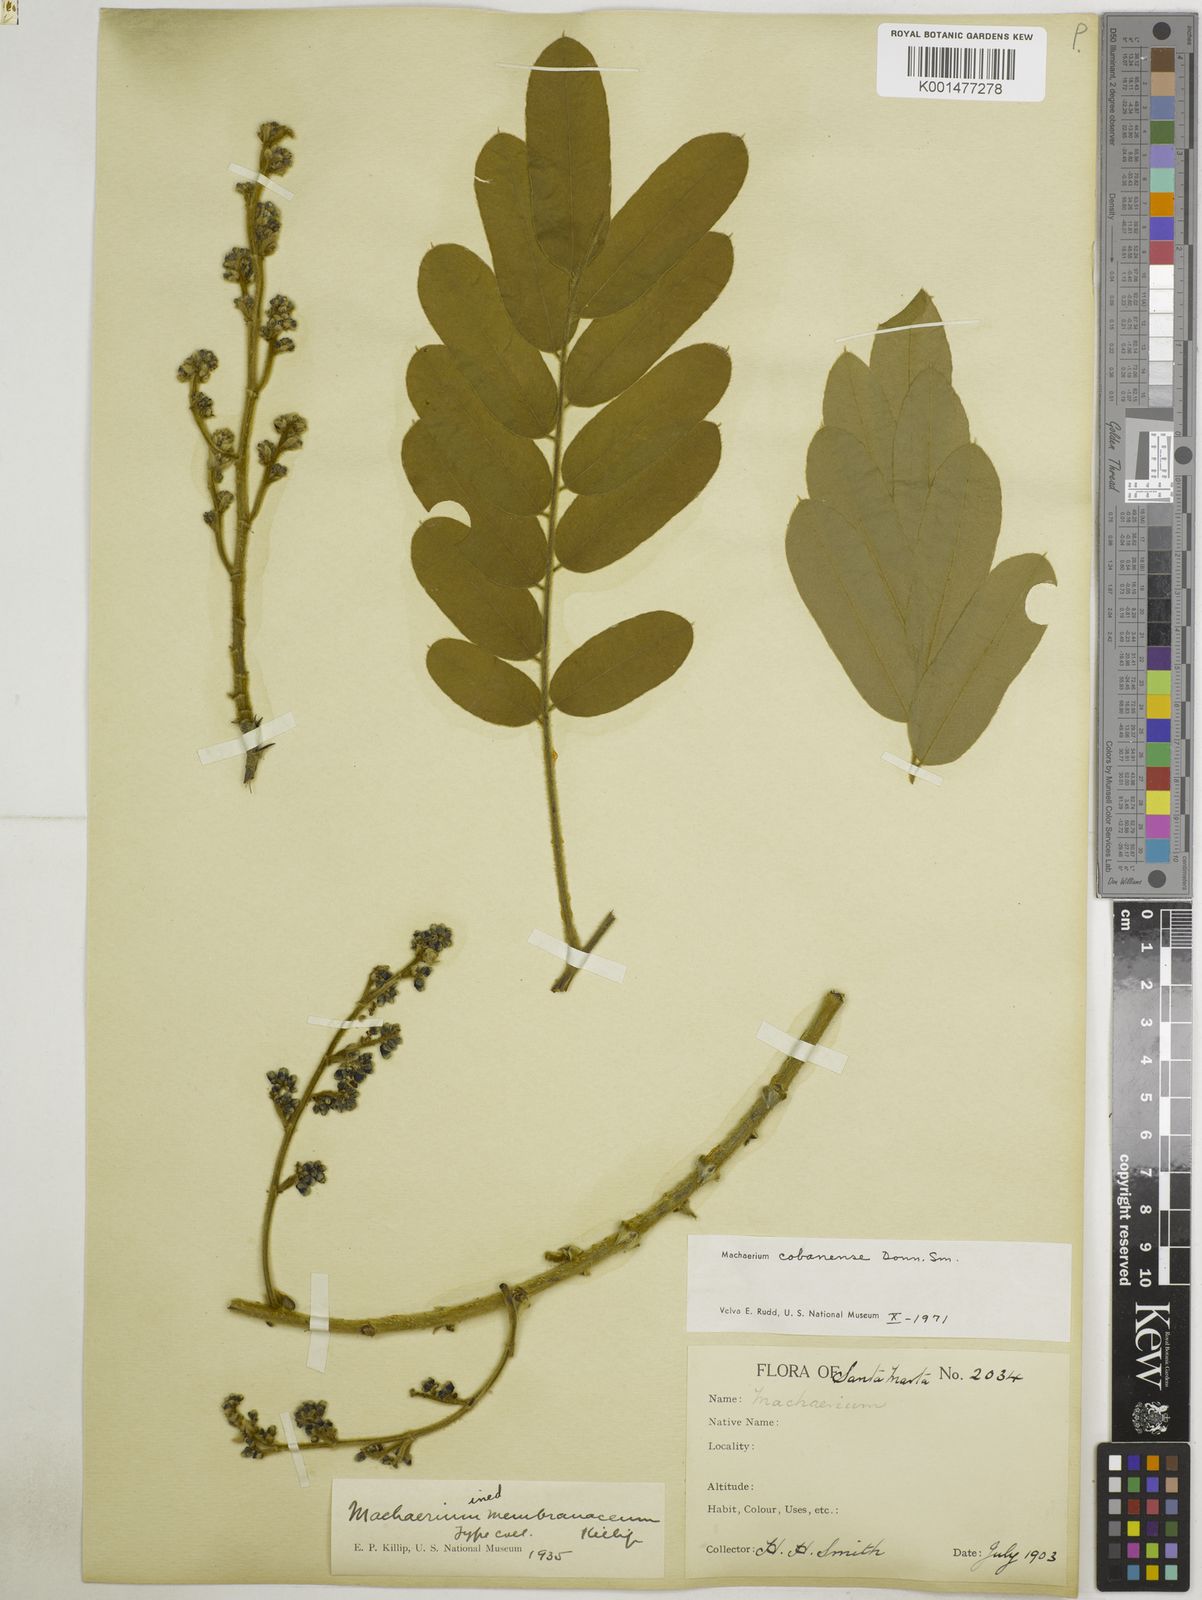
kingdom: Plantae
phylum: Tracheophyta
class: Magnoliopsida
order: Fabales
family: Fabaceae
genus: Machaerium
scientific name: Machaerium cobanense
